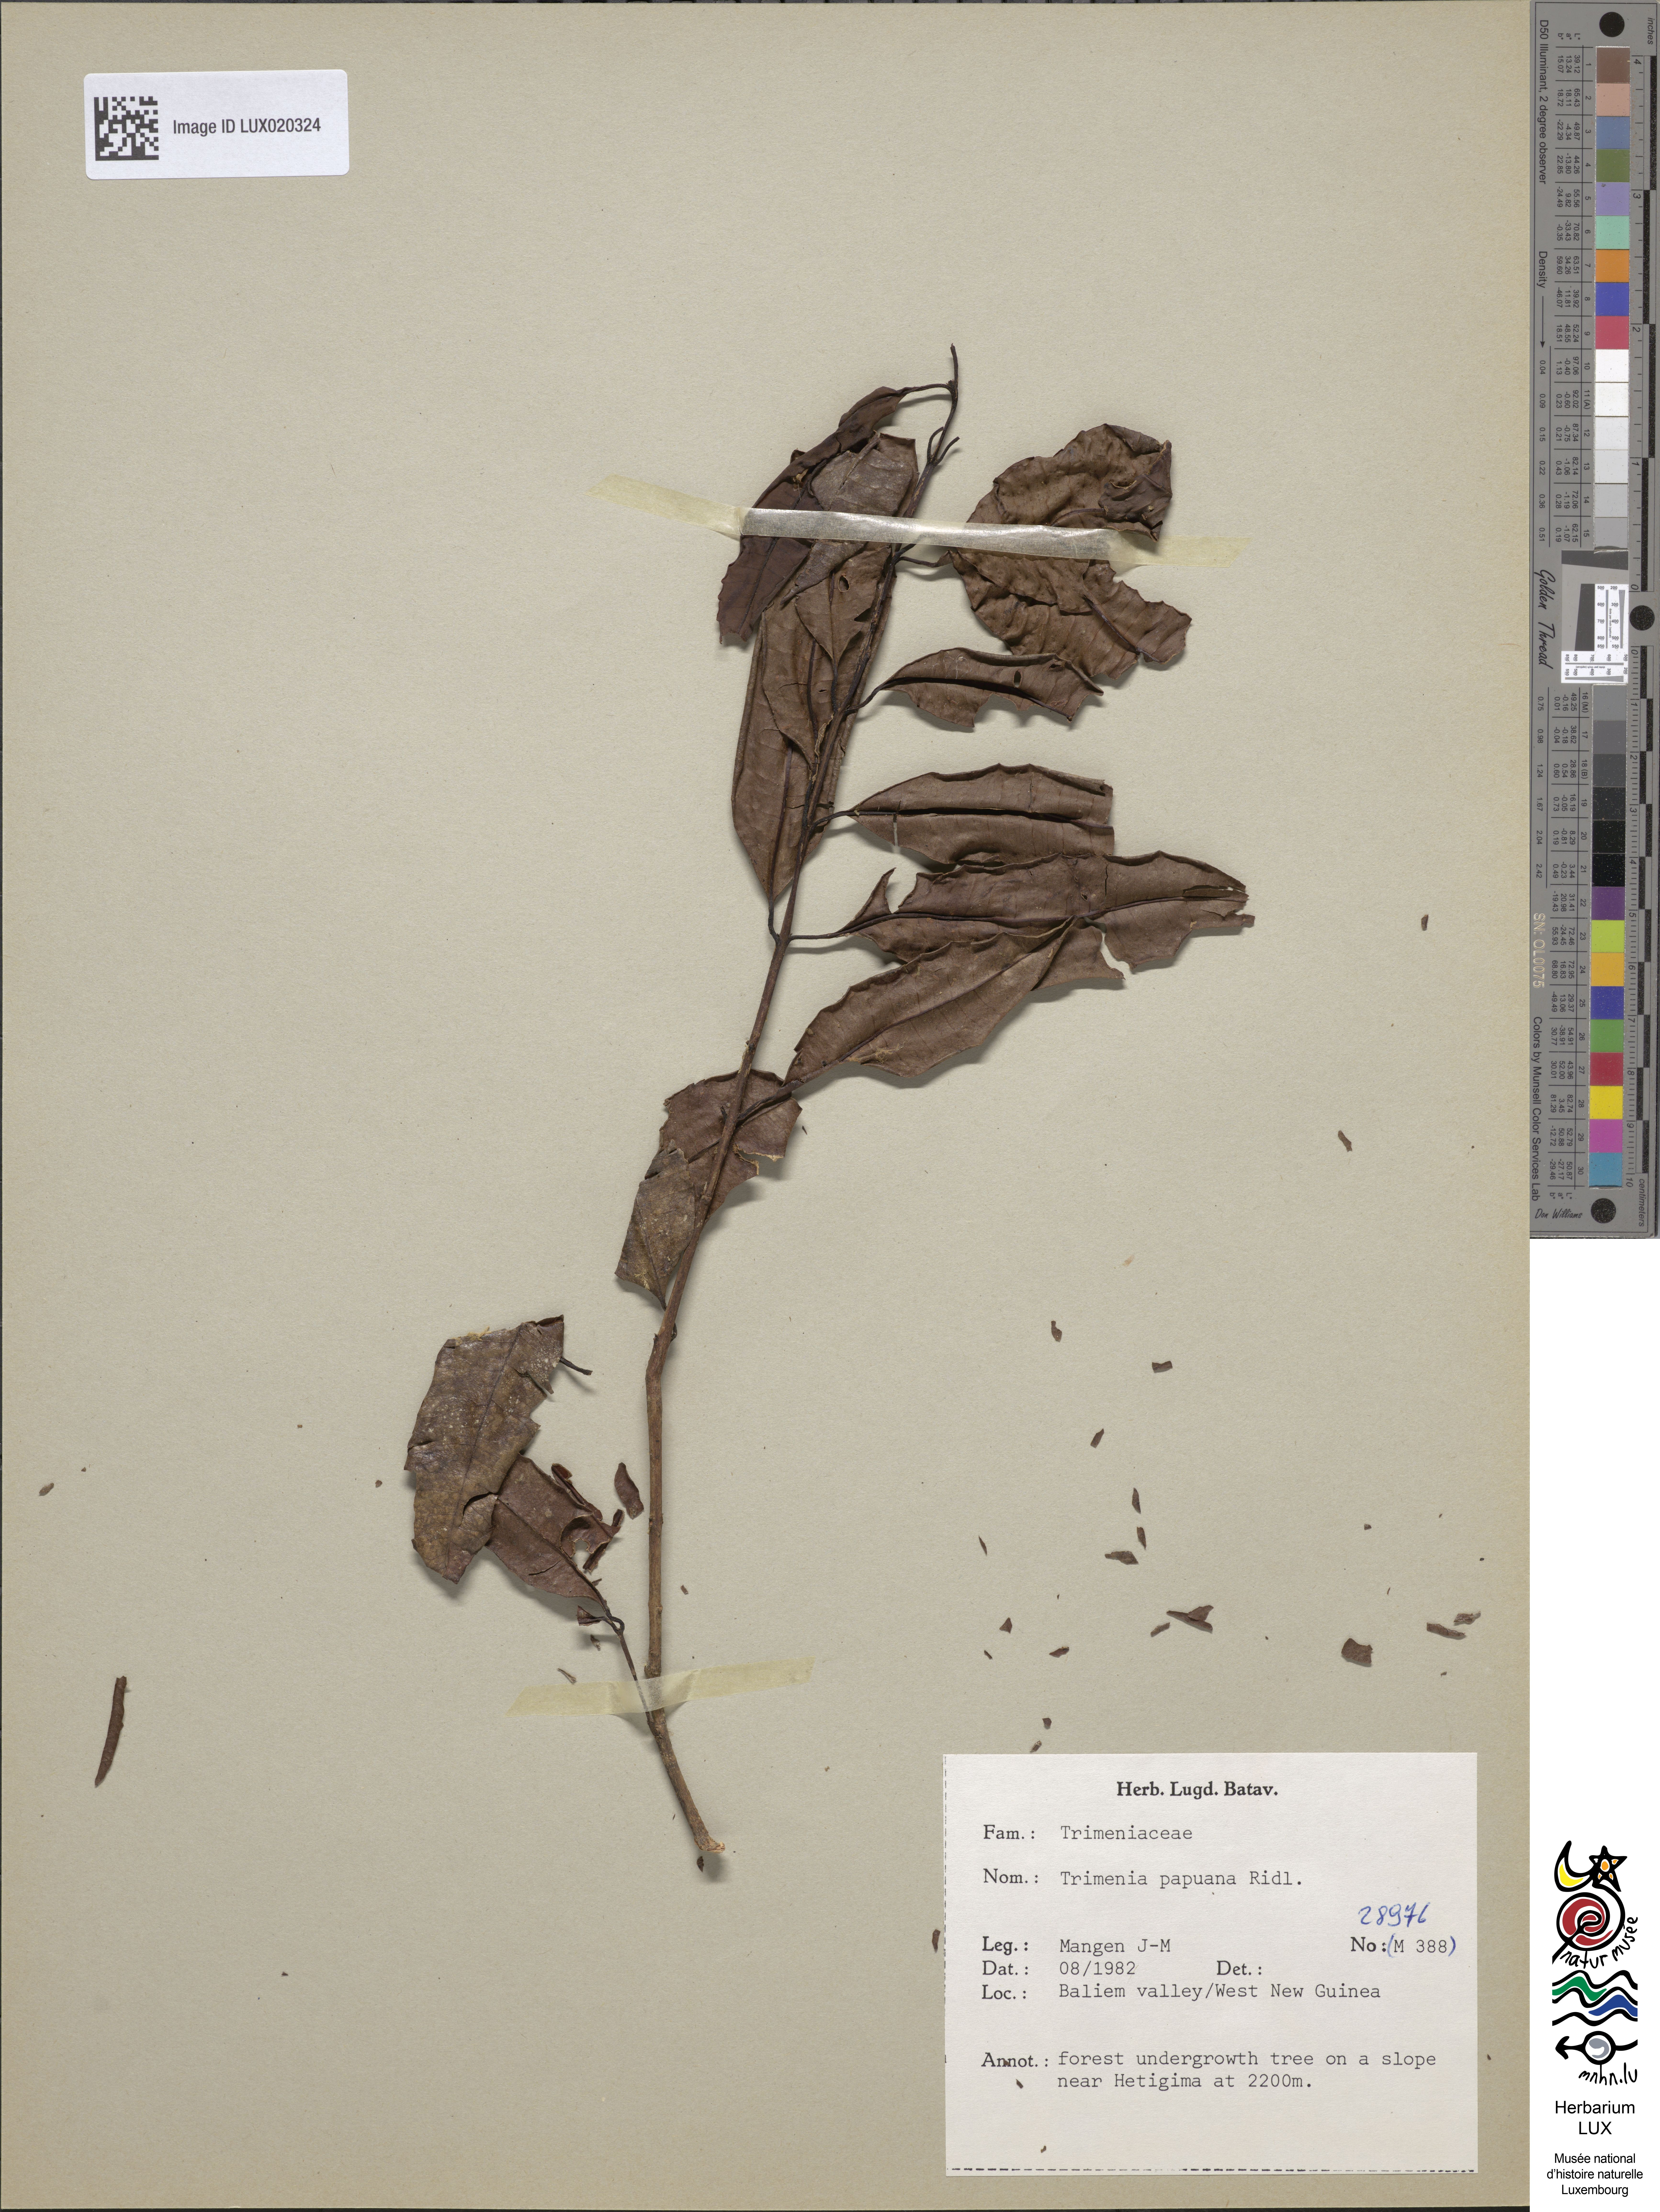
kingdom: Plantae
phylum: Tracheophyta
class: Magnoliopsida
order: Austrobaileyales
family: Trimeniaceae
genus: Trimenia
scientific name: Trimenia papuana
